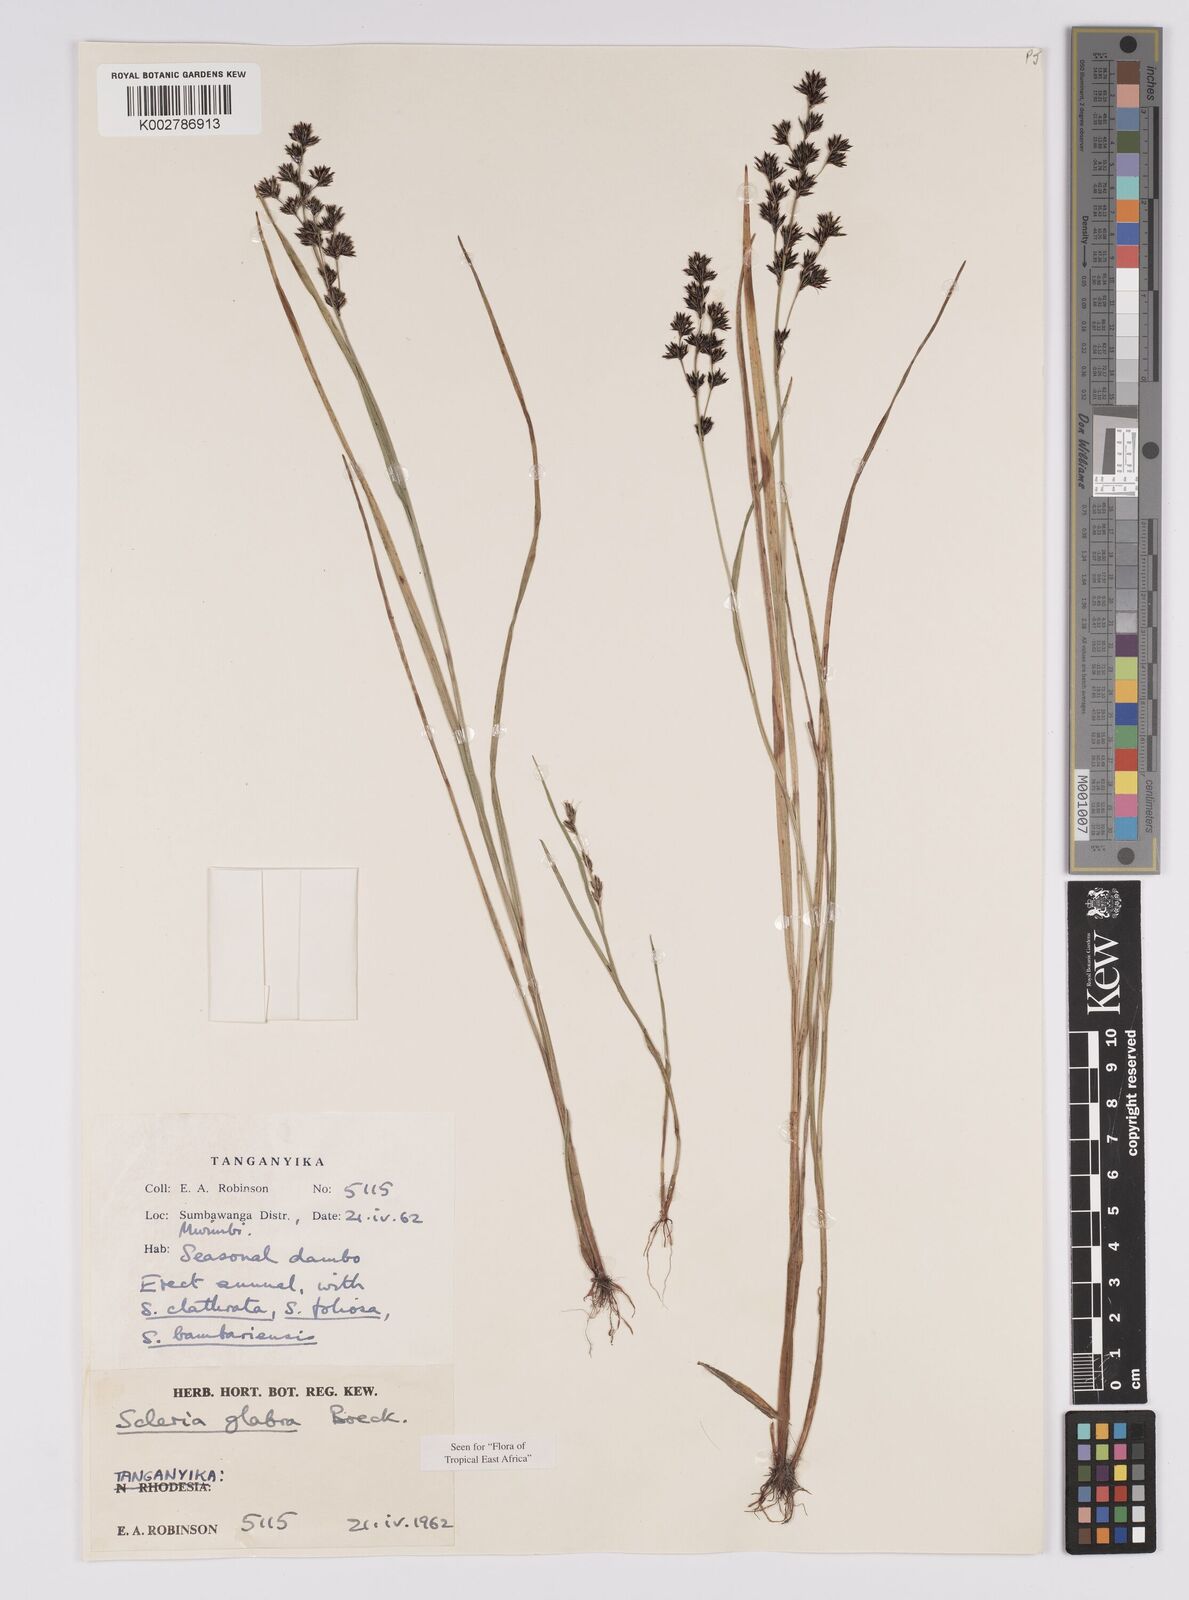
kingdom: Plantae
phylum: Tracheophyta
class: Liliopsida
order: Poales
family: Cyperaceae
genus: Scleria
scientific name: Scleria glabra
